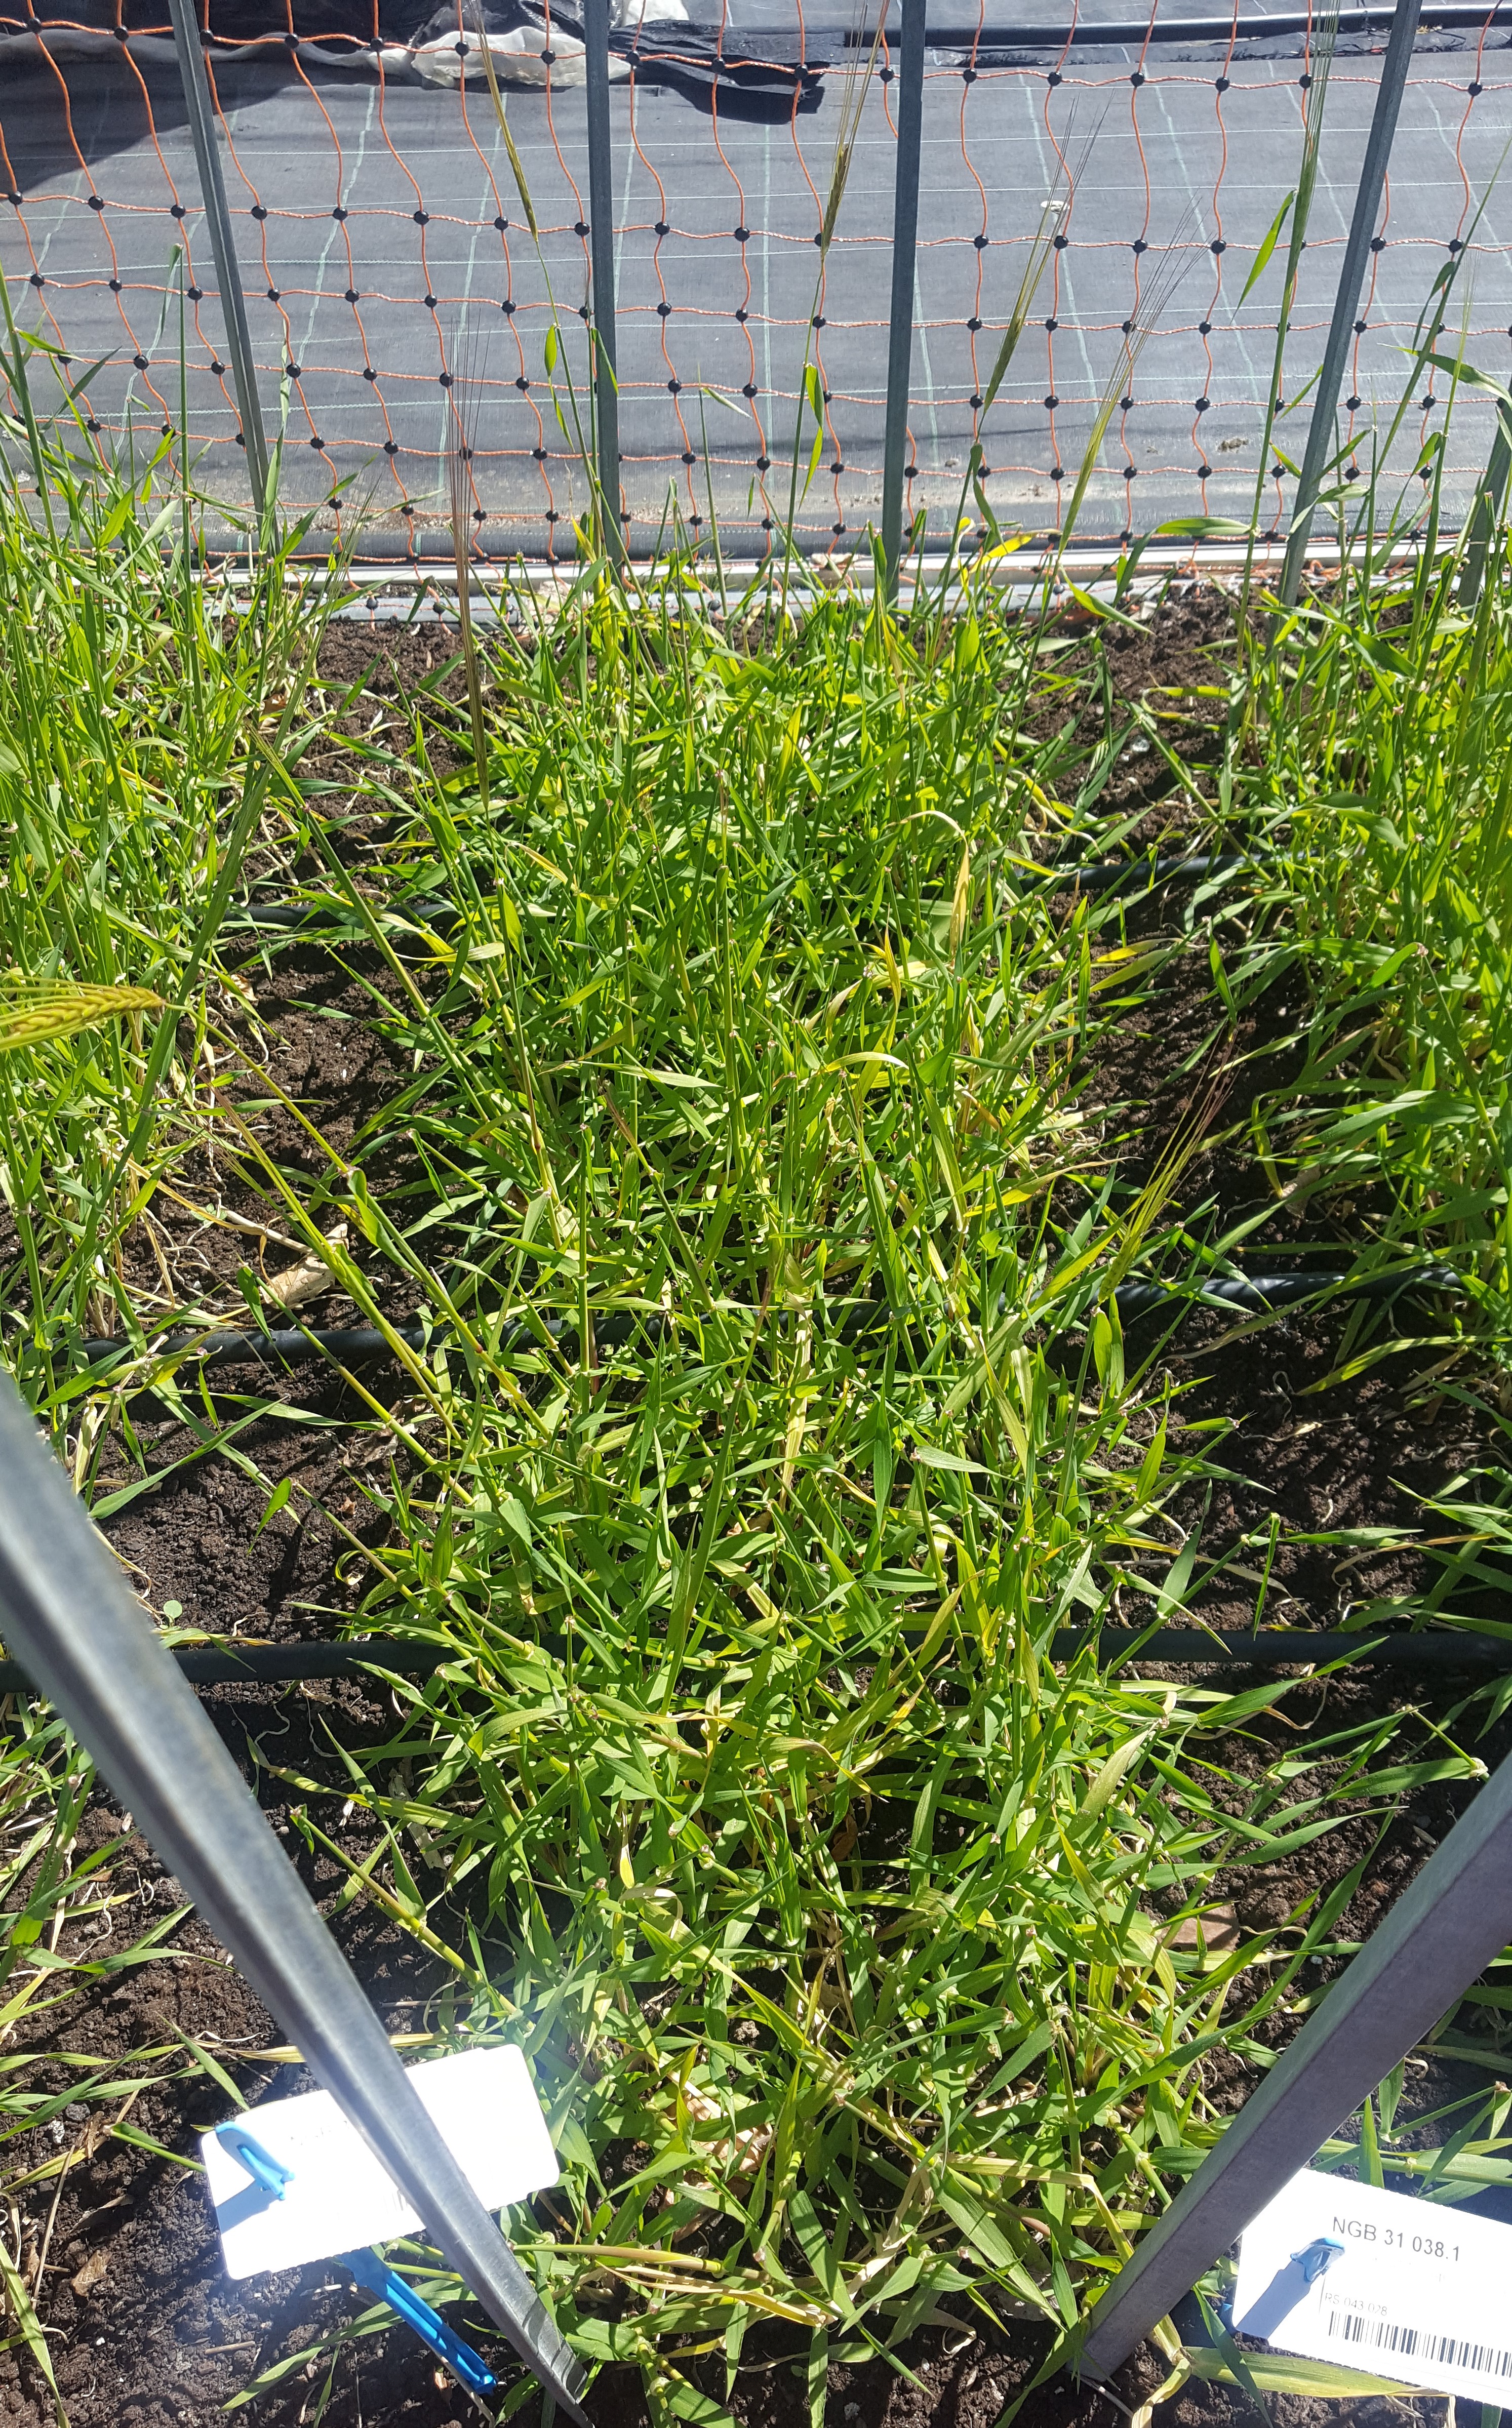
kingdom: Plantae
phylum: Tracheophyta
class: Liliopsida
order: Poales
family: Poaceae
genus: Hordeum
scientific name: Hordeum spontaneum
